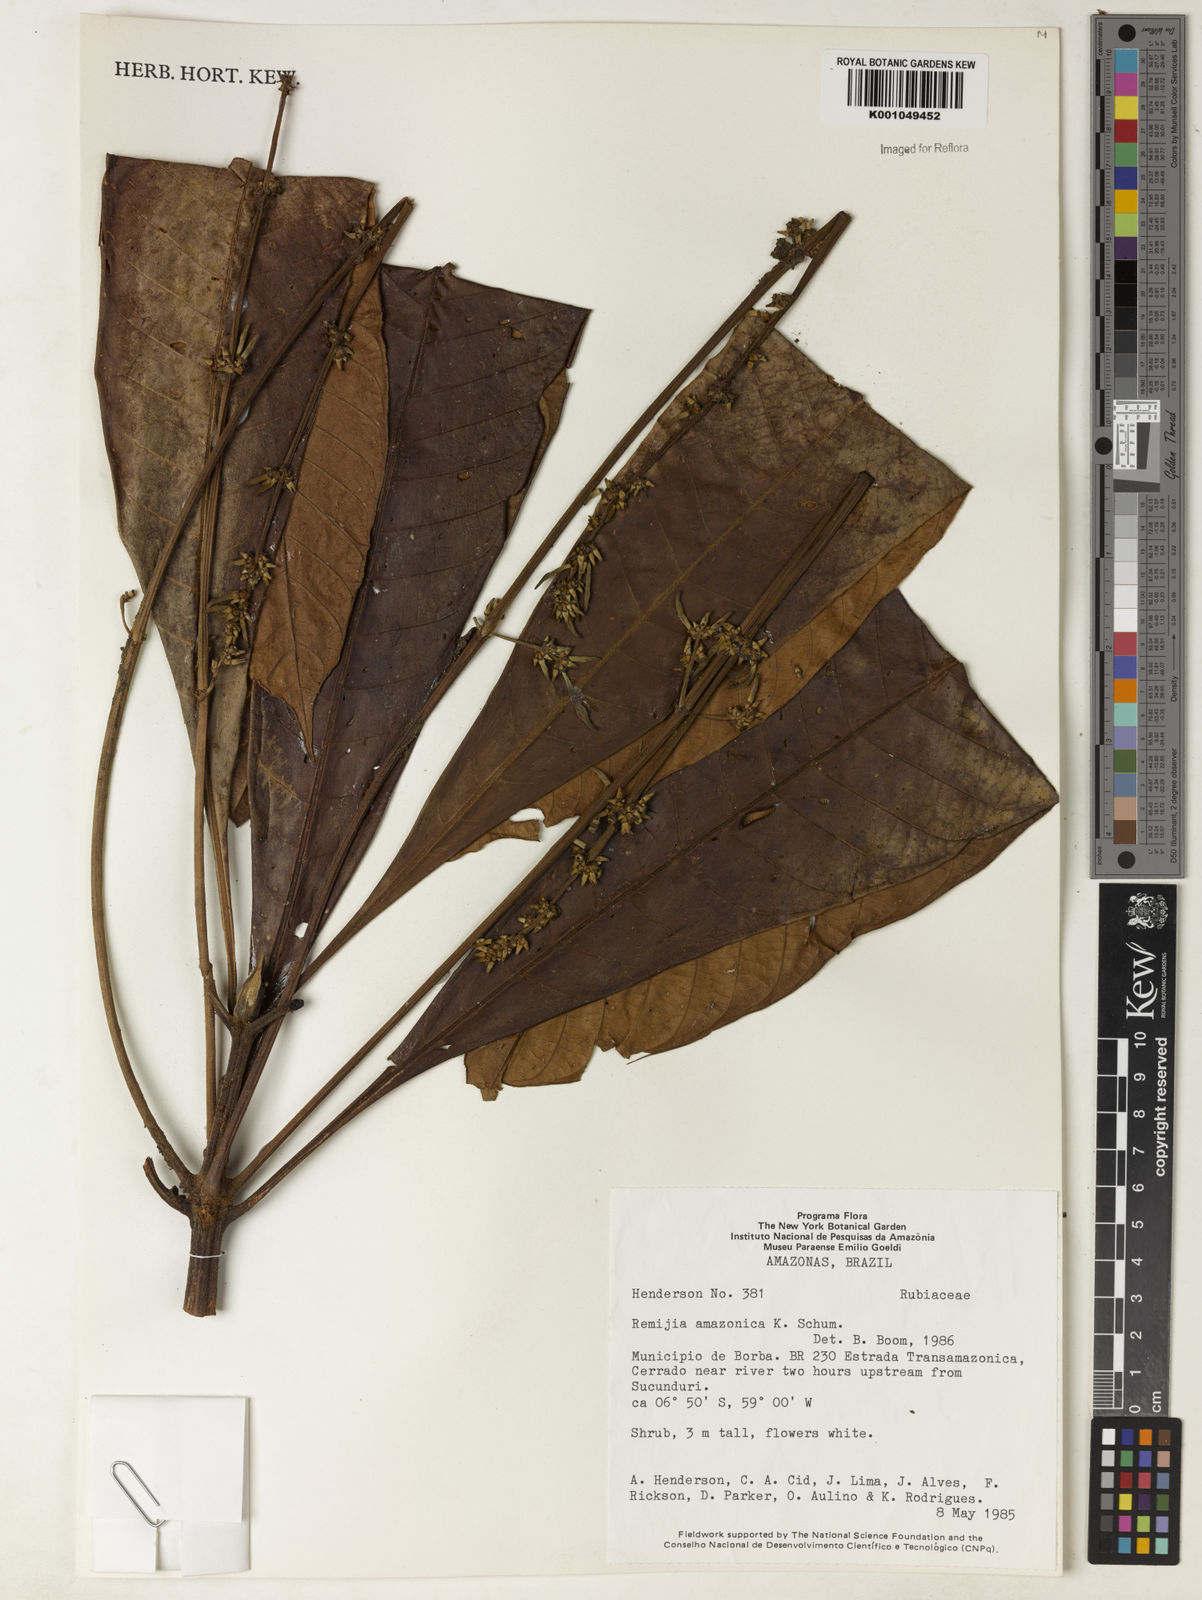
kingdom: Plantae
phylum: Tracheophyta
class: Magnoliopsida
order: Gentianales
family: Rubiaceae
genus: Remijia
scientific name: Remijia amazonica
